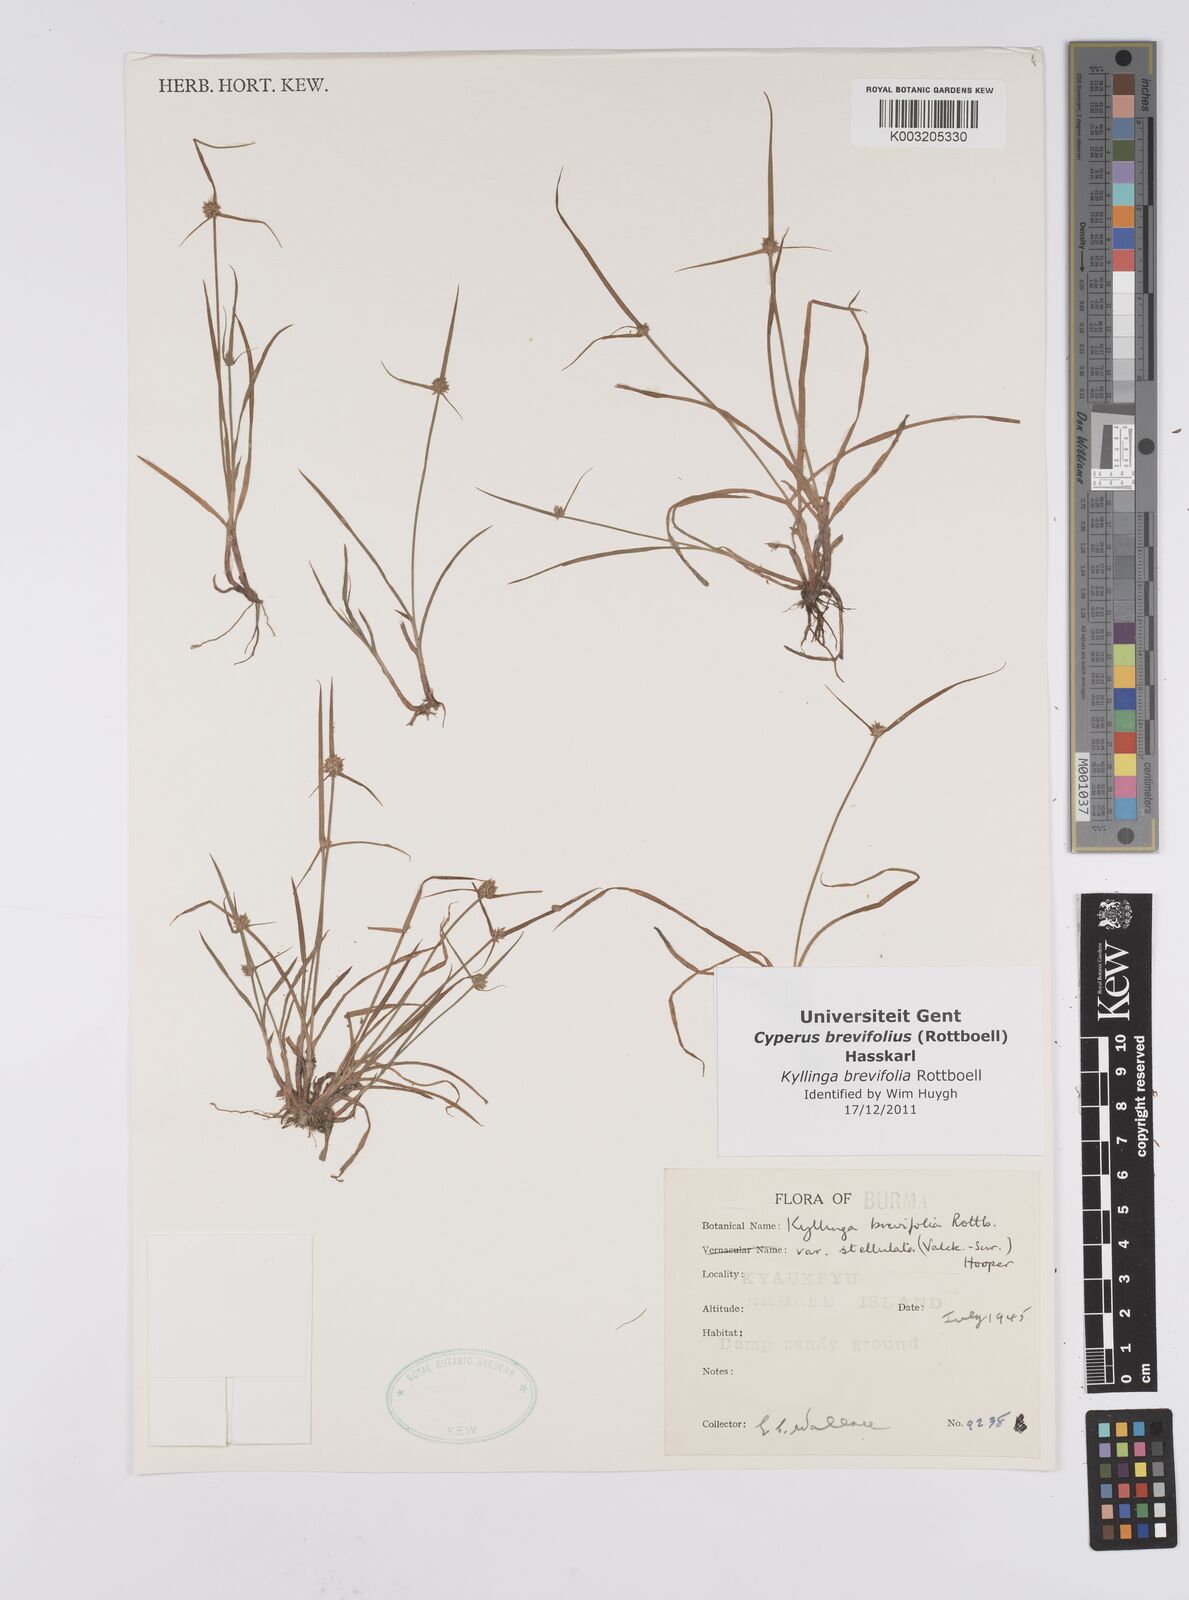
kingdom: Plantae
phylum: Tracheophyta
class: Liliopsida
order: Poales
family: Cyperaceae
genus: Cyperus
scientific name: Cyperus brevifolius
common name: Globe kyllinga
